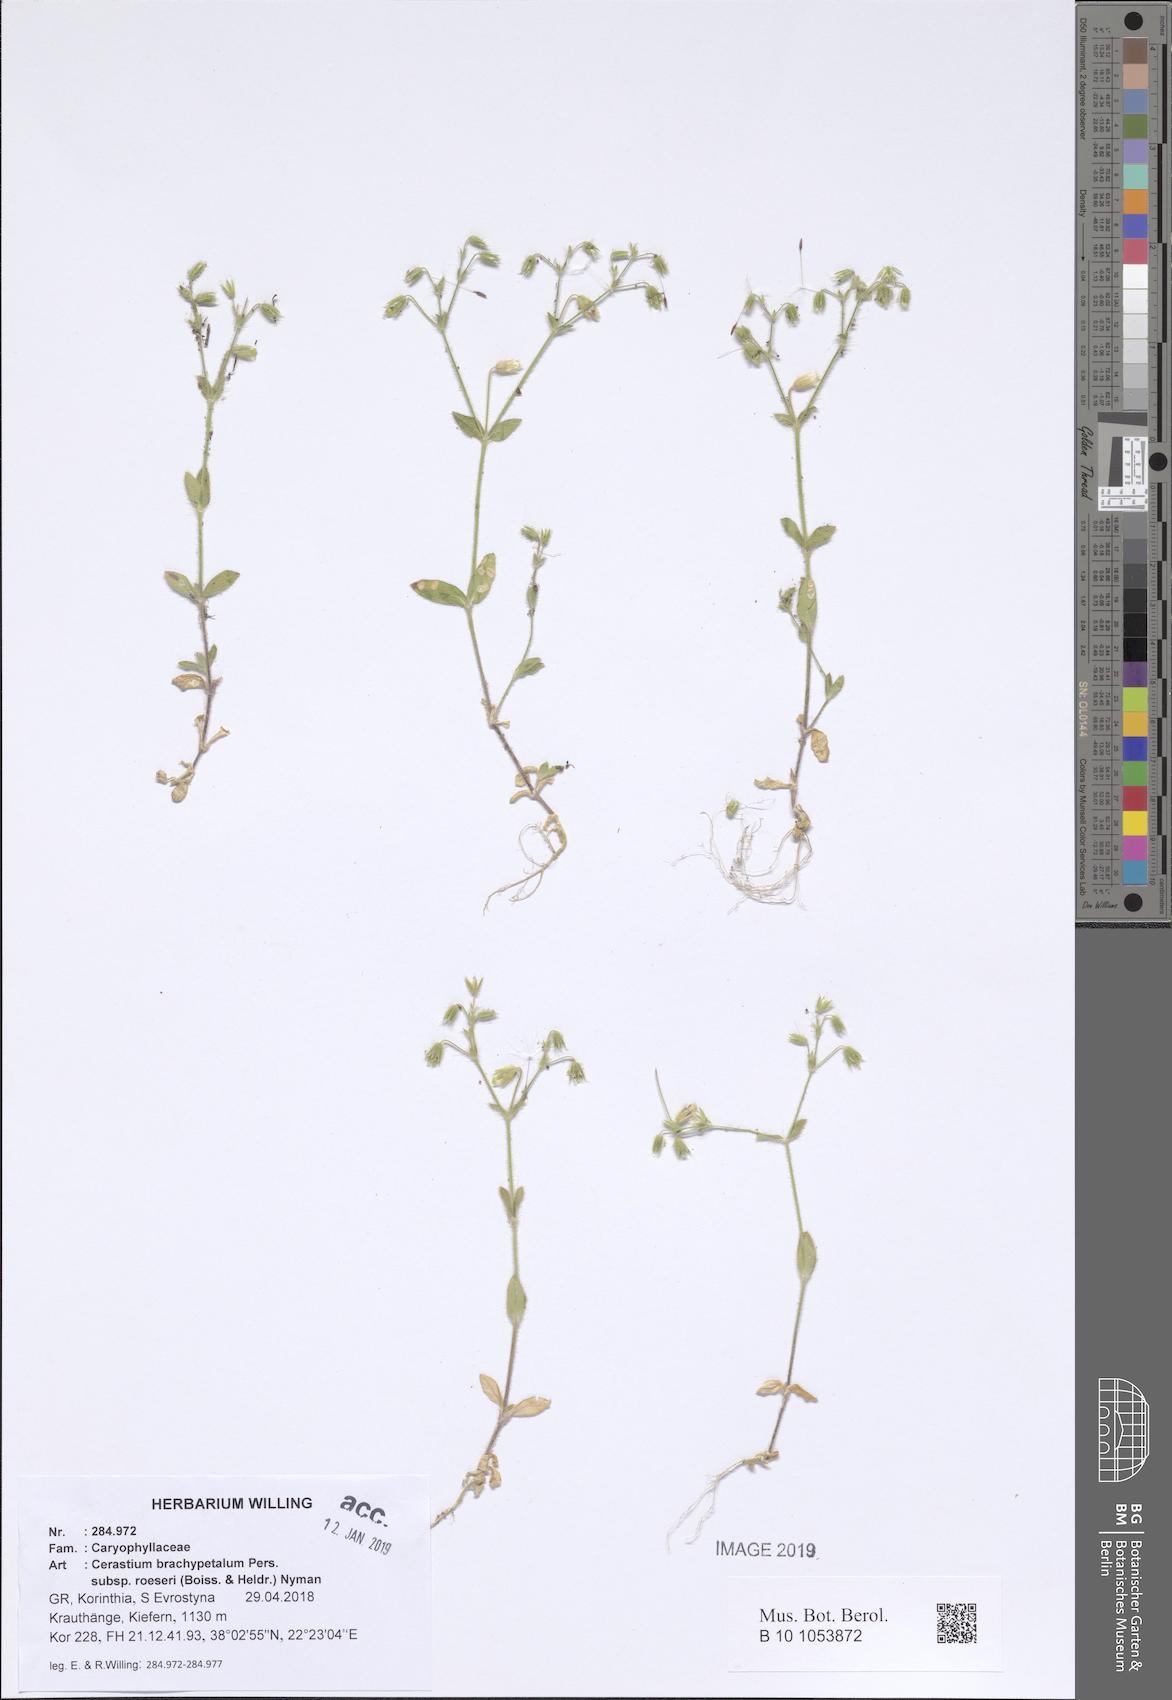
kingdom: Plantae
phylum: Tracheophyta
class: Magnoliopsida
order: Caryophyllales
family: Caryophyllaceae
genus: Cerastium
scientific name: Cerastium brachypetalum
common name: Grey mouse-ear
